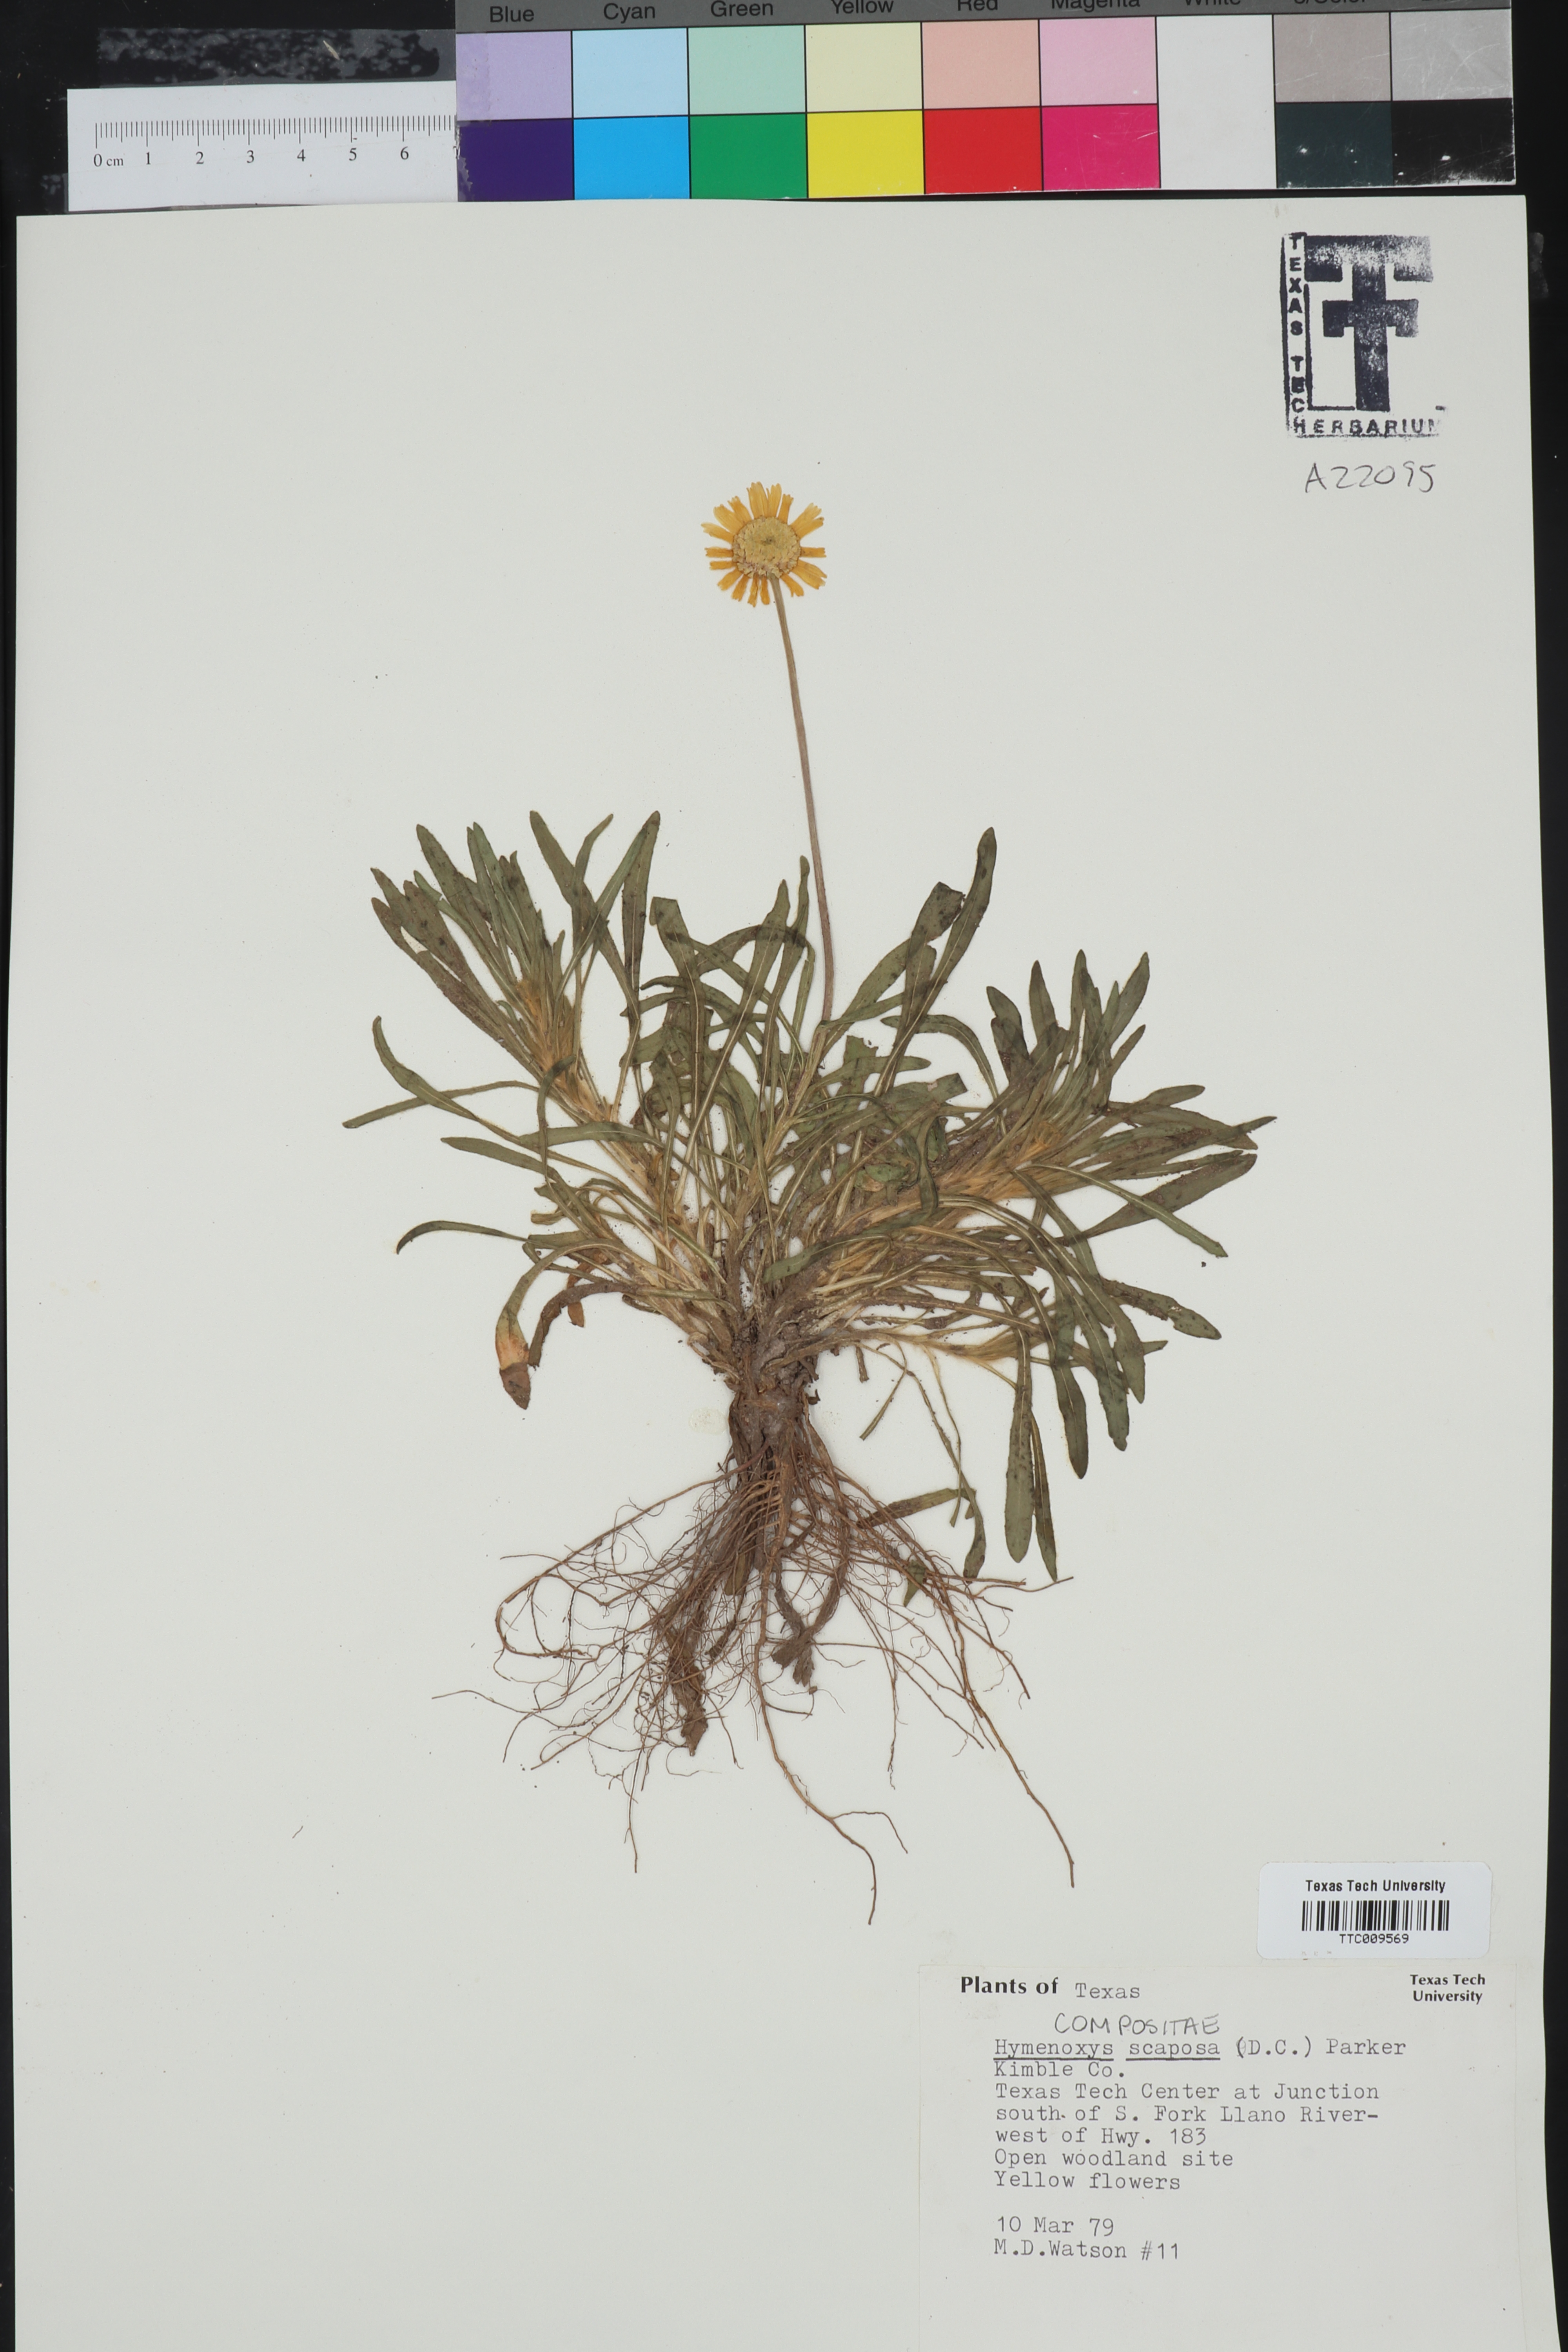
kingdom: Plantae
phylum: Tracheophyta
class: Magnoliopsida
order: Asterales
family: Asteraceae
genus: Tetraneuris
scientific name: Tetraneuris scaposa
